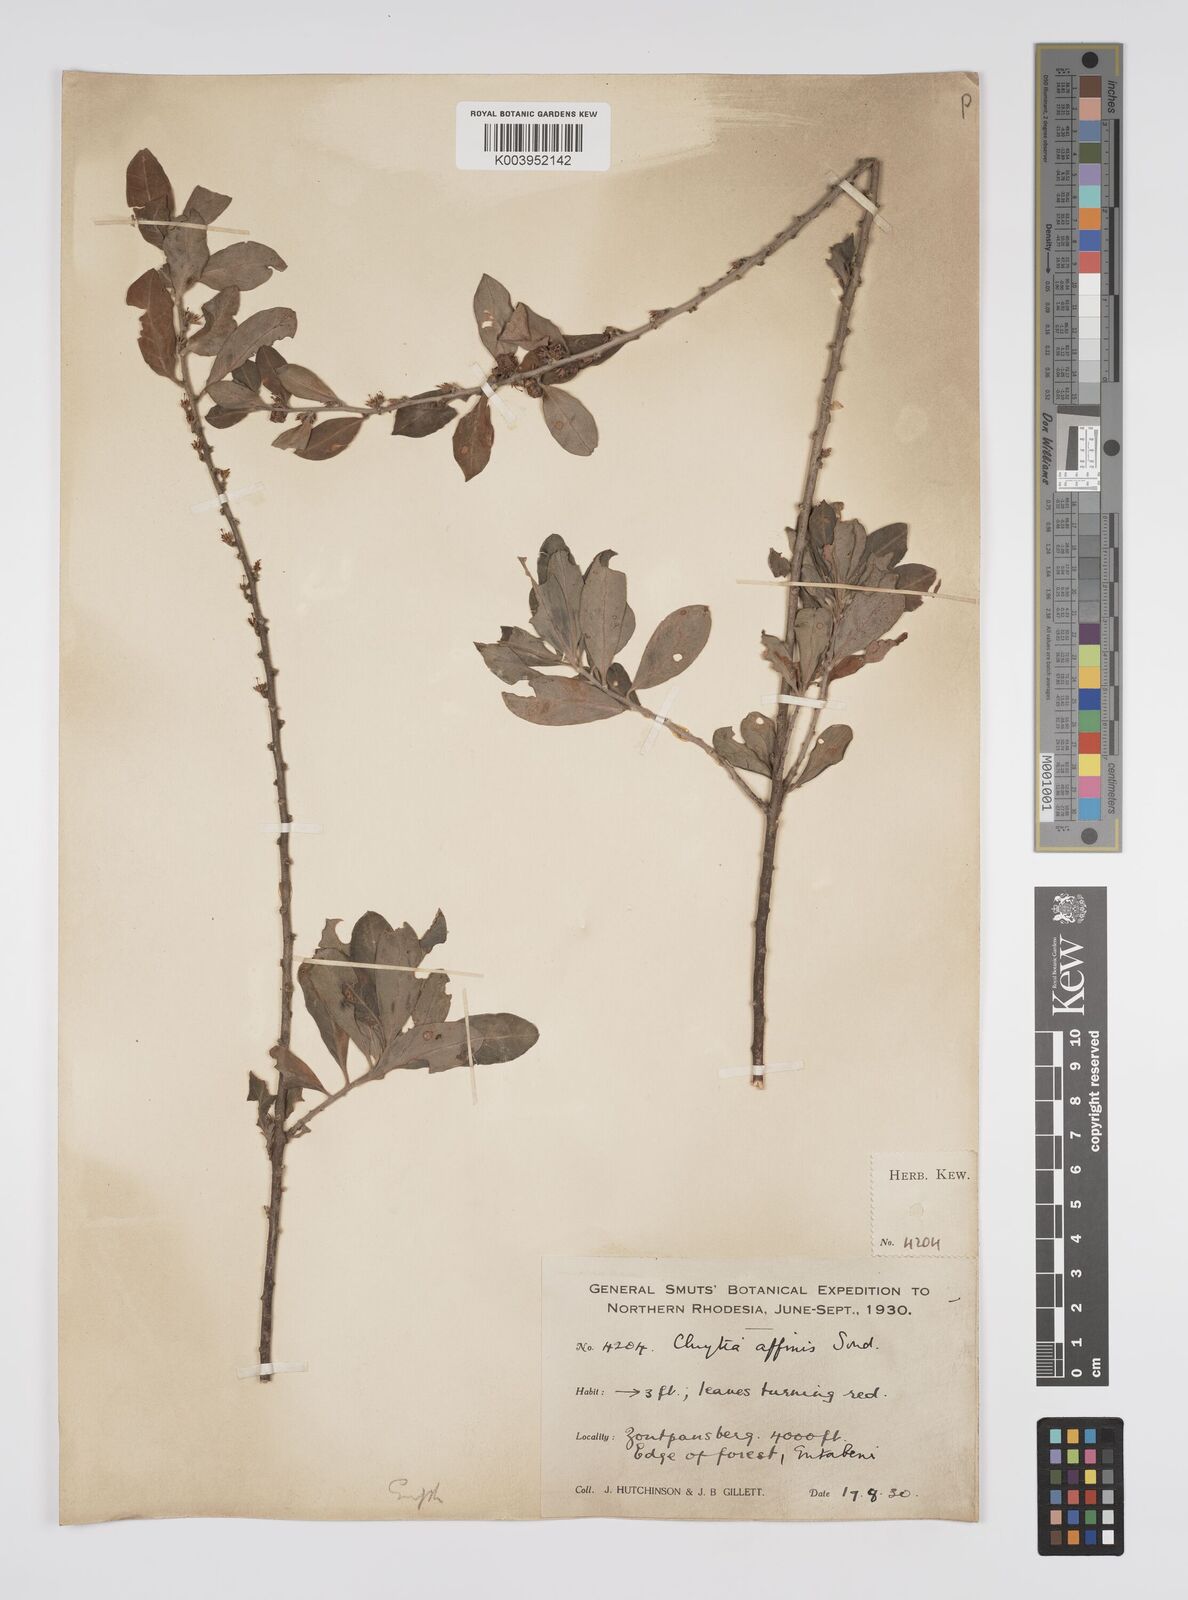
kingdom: Plantae
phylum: Tracheophyta
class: Magnoliopsida
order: Malpighiales
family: Peraceae
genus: Clutia
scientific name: Clutia affinis
